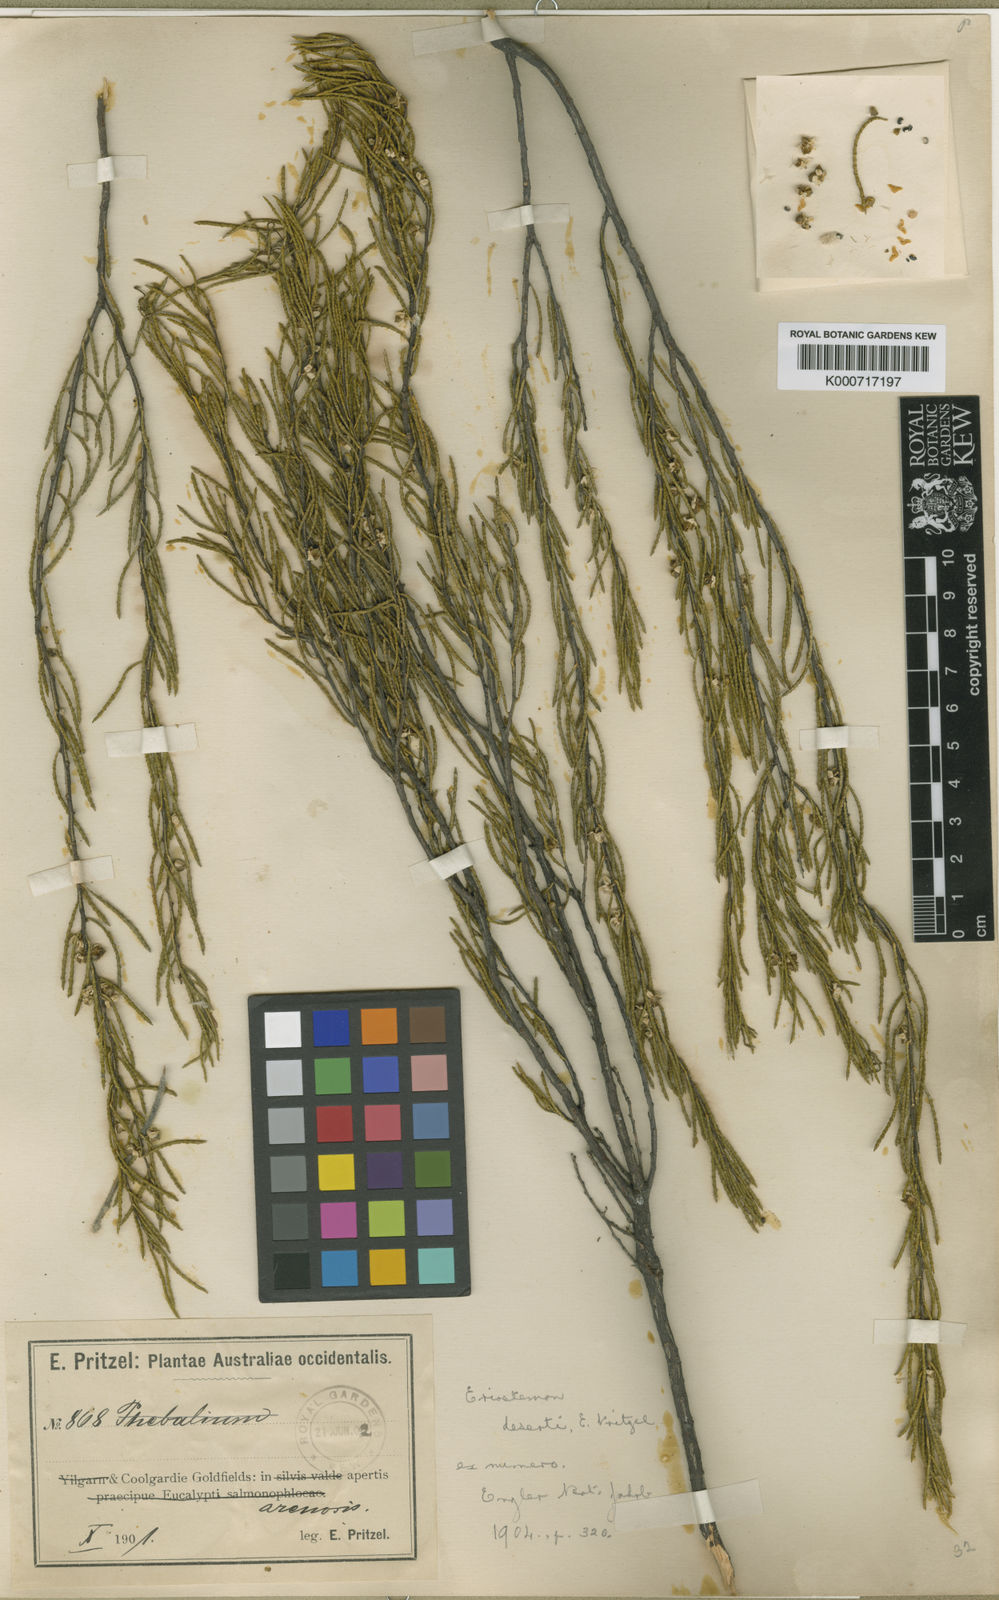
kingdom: Plantae
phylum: Tracheophyta
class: Magnoliopsida
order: Sapindales
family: Rutaceae
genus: Philotheca
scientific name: Philotheca deserti
